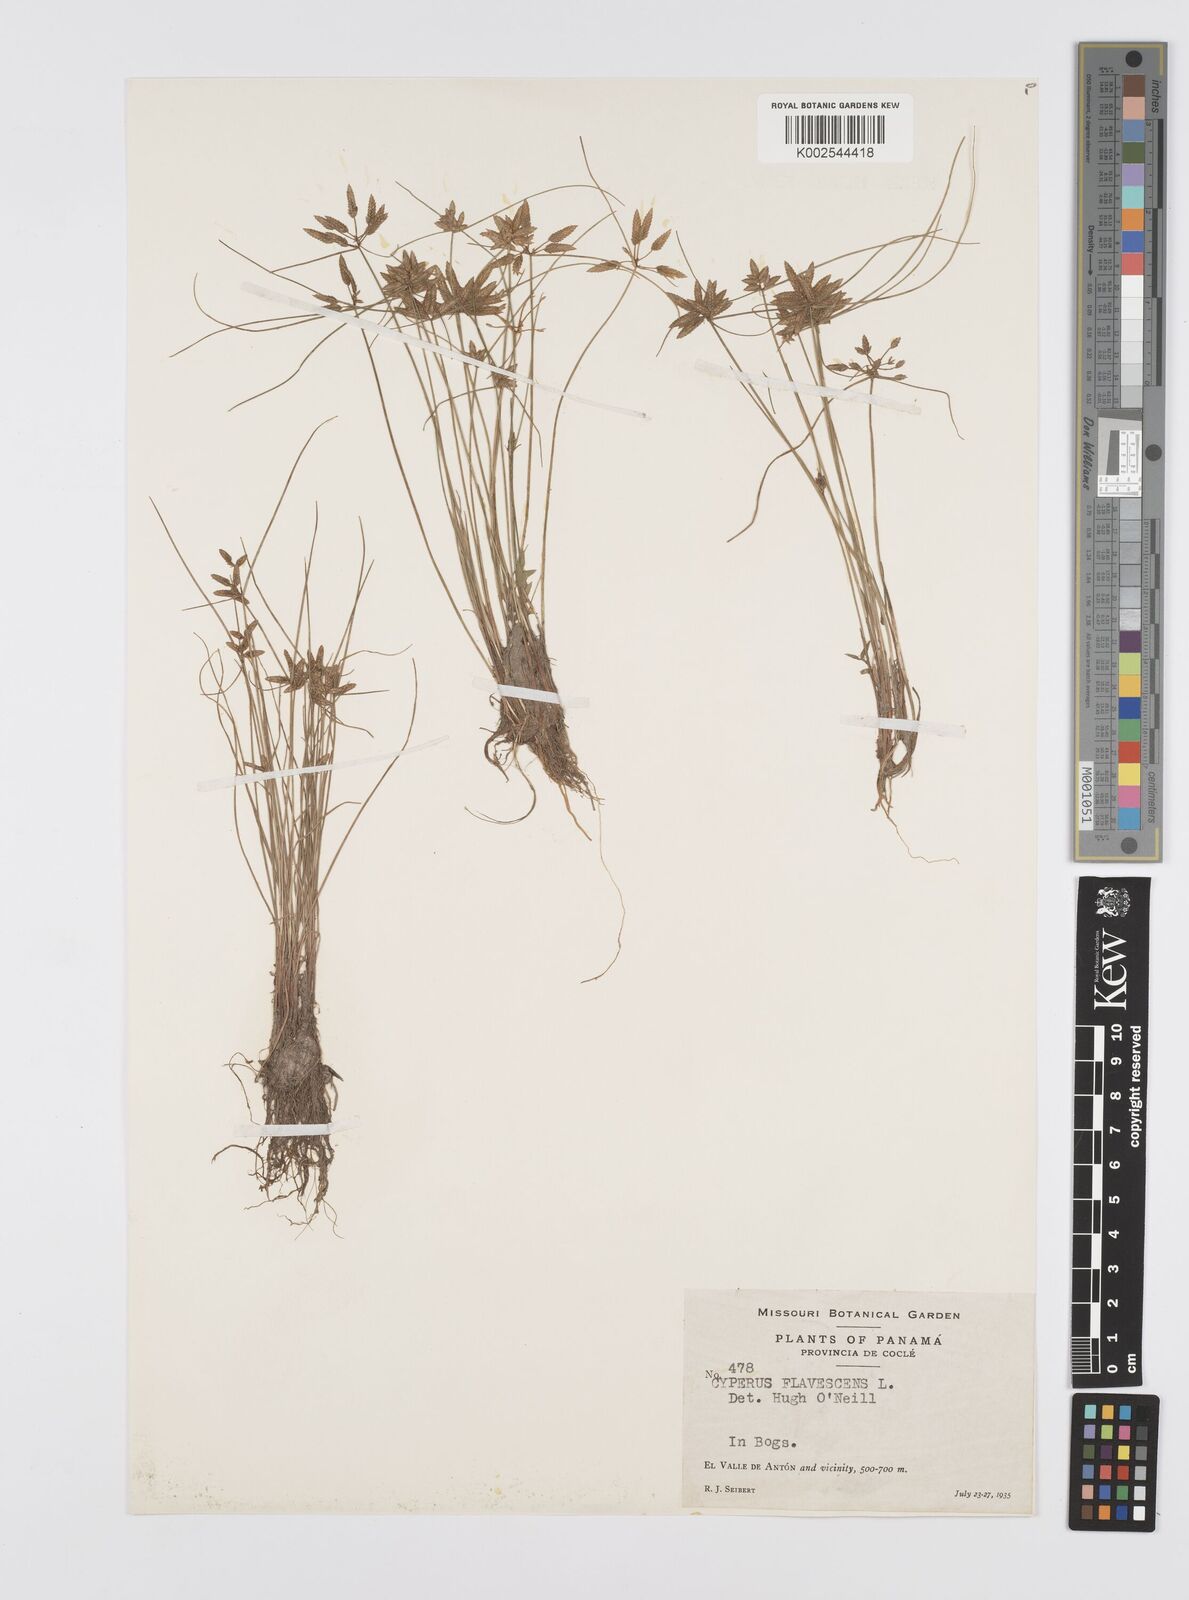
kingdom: Plantae
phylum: Tracheophyta
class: Liliopsida
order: Poales
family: Cyperaceae
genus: Cyperus
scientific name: Cyperus flavescens
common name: Yellow galingale
